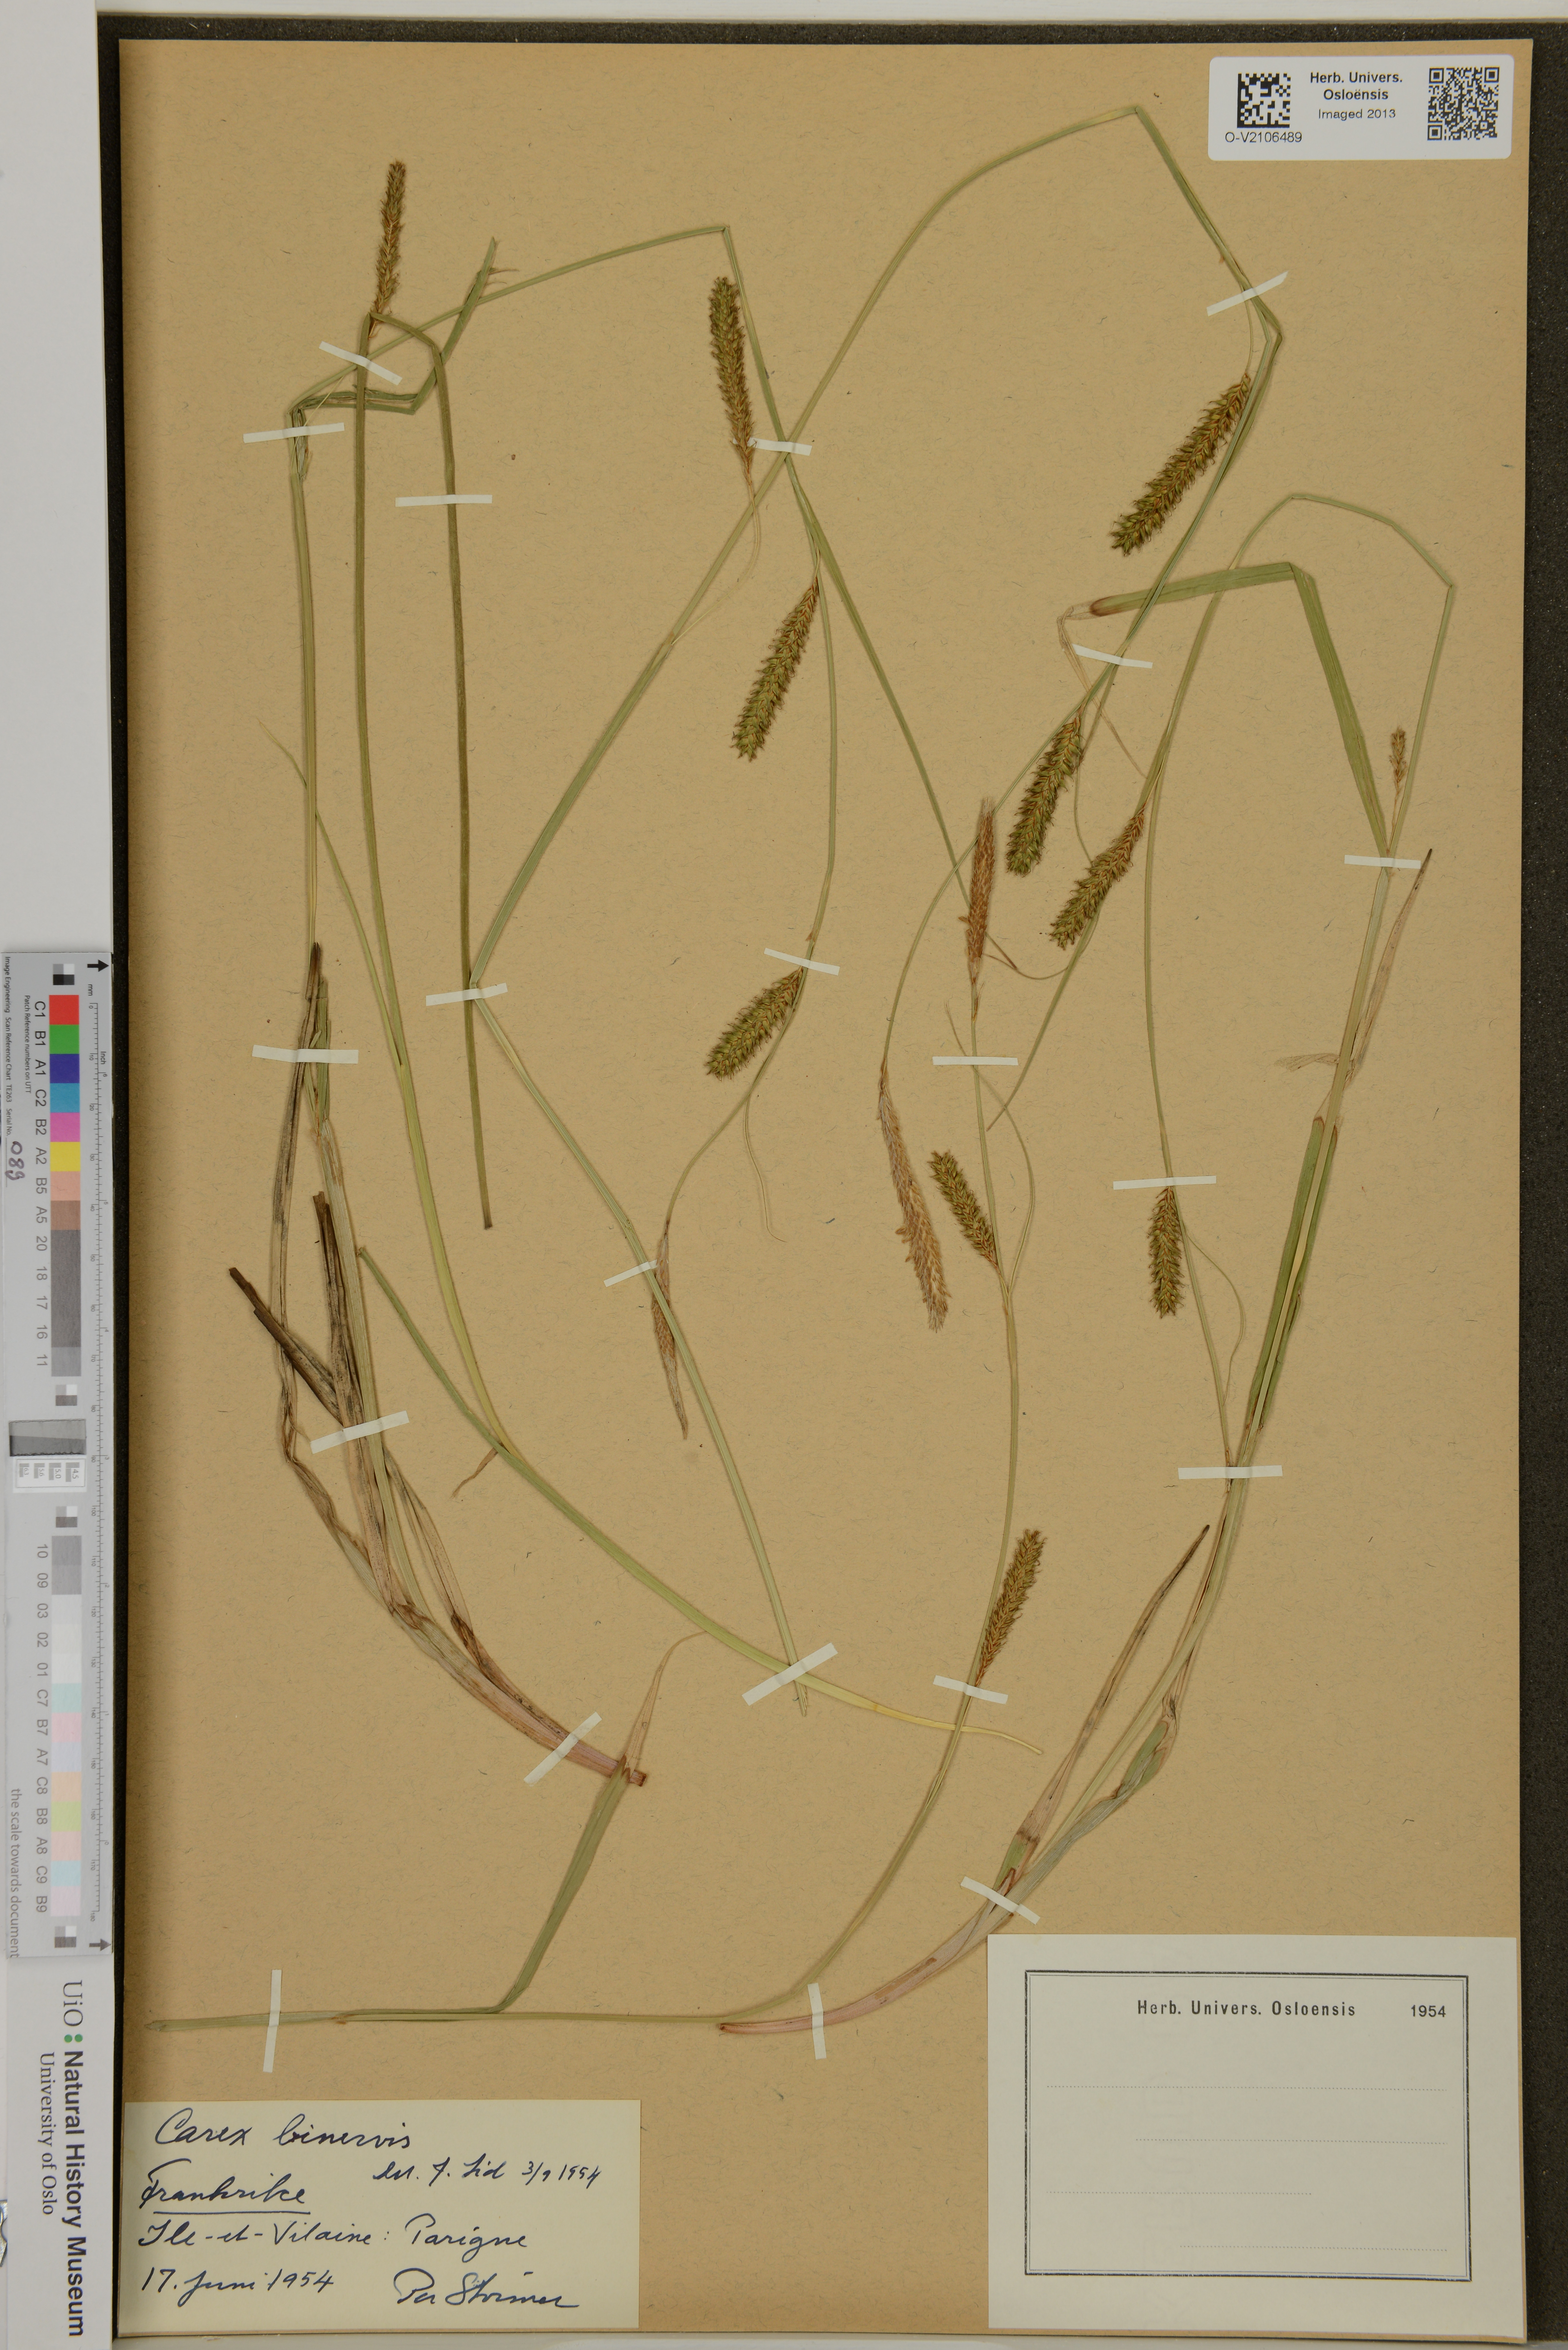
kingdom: Plantae
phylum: Tracheophyta
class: Liliopsida
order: Poales
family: Cyperaceae
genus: Carex
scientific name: Carex binervis
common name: Green-ribbed sedge
